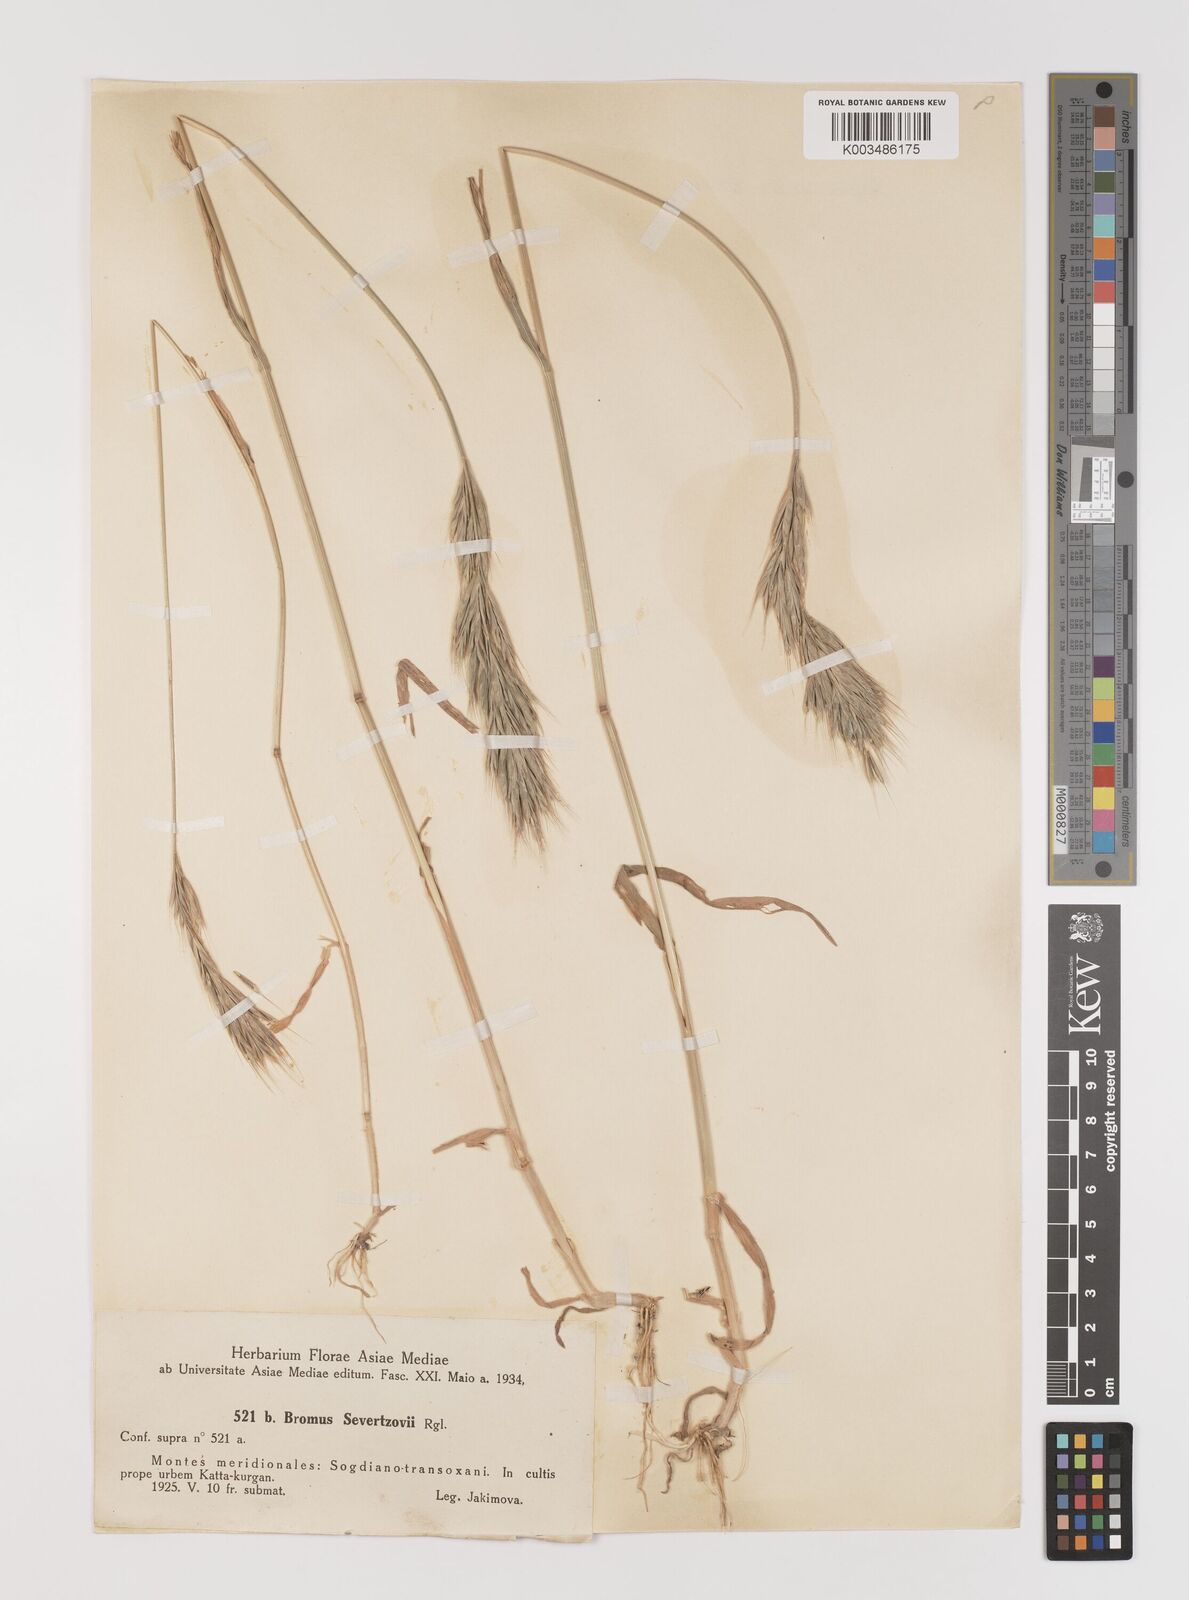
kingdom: Plantae
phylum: Tracheophyta
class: Liliopsida
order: Poales
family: Poaceae
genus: Bromus
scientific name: Bromus sewerzowii
